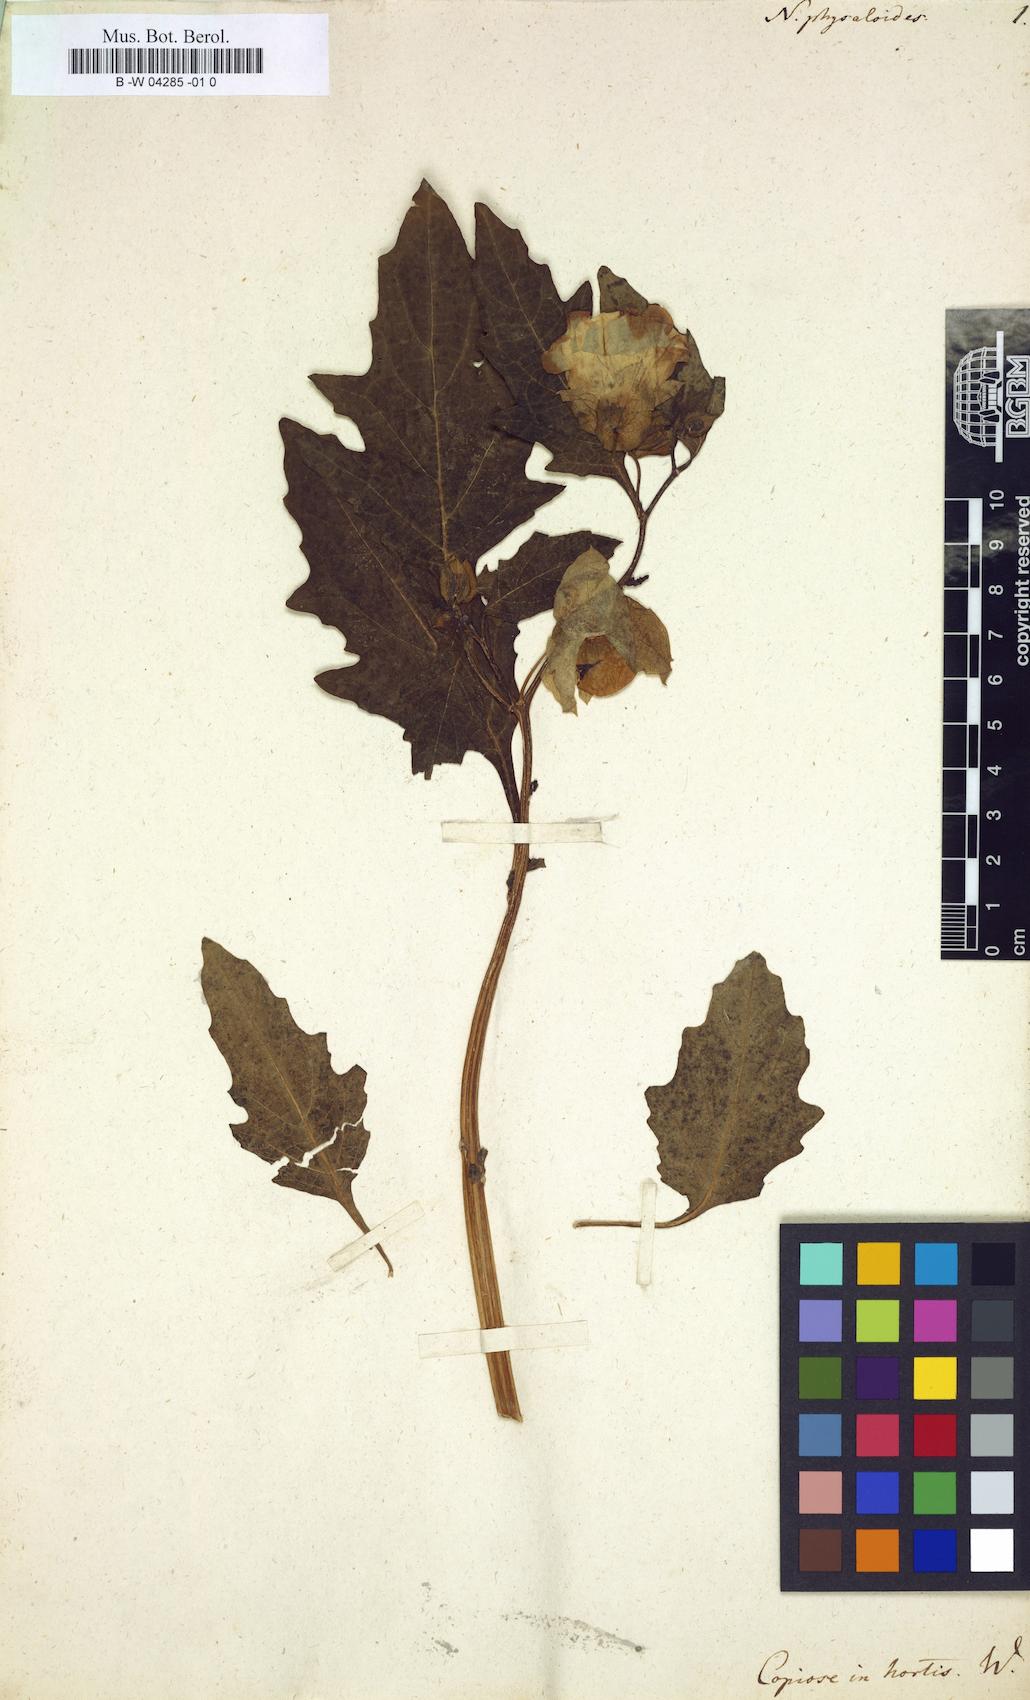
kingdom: Plantae
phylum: Tracheophyta
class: Magnoliopsida
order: Solanales
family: Solanaceae
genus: Physochlaina
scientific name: Physochlaina physaloides
